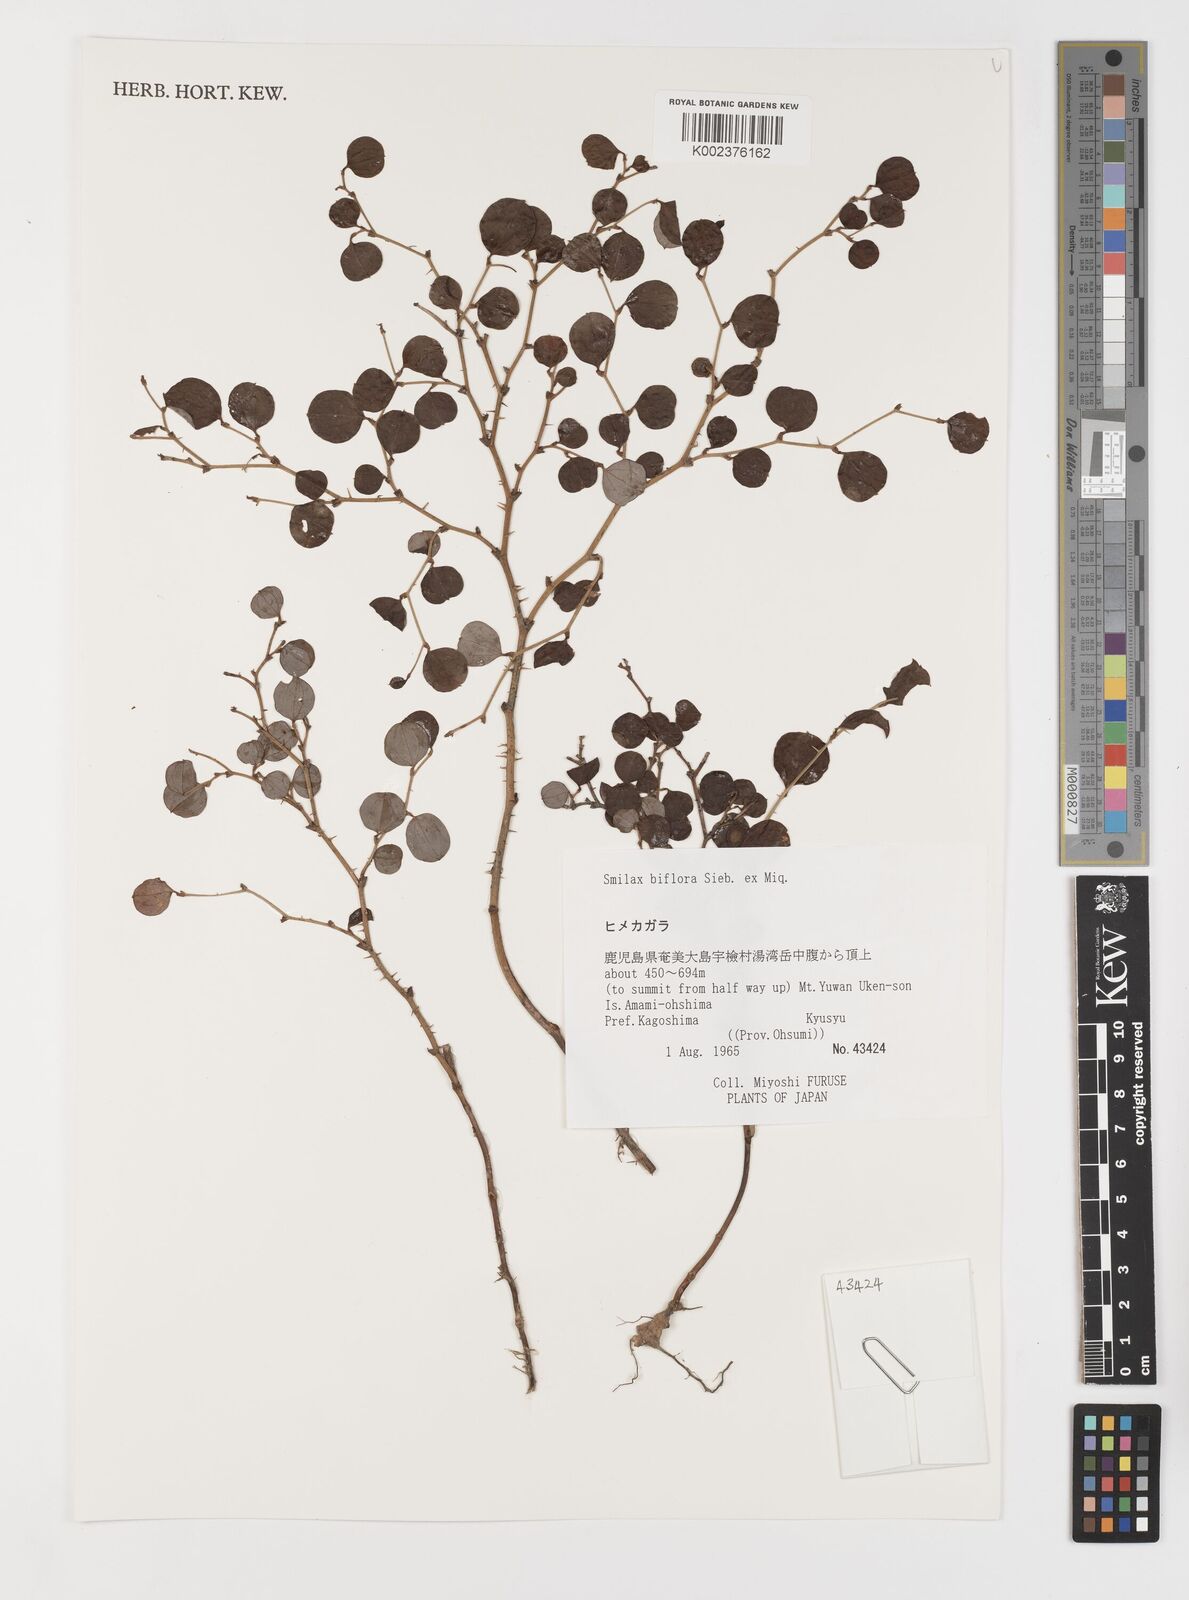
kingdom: Plantae
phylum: Tracheophyta
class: Liliopsida
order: Liliales
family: Smilacaceae
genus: Smilax
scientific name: Smilax biflora
